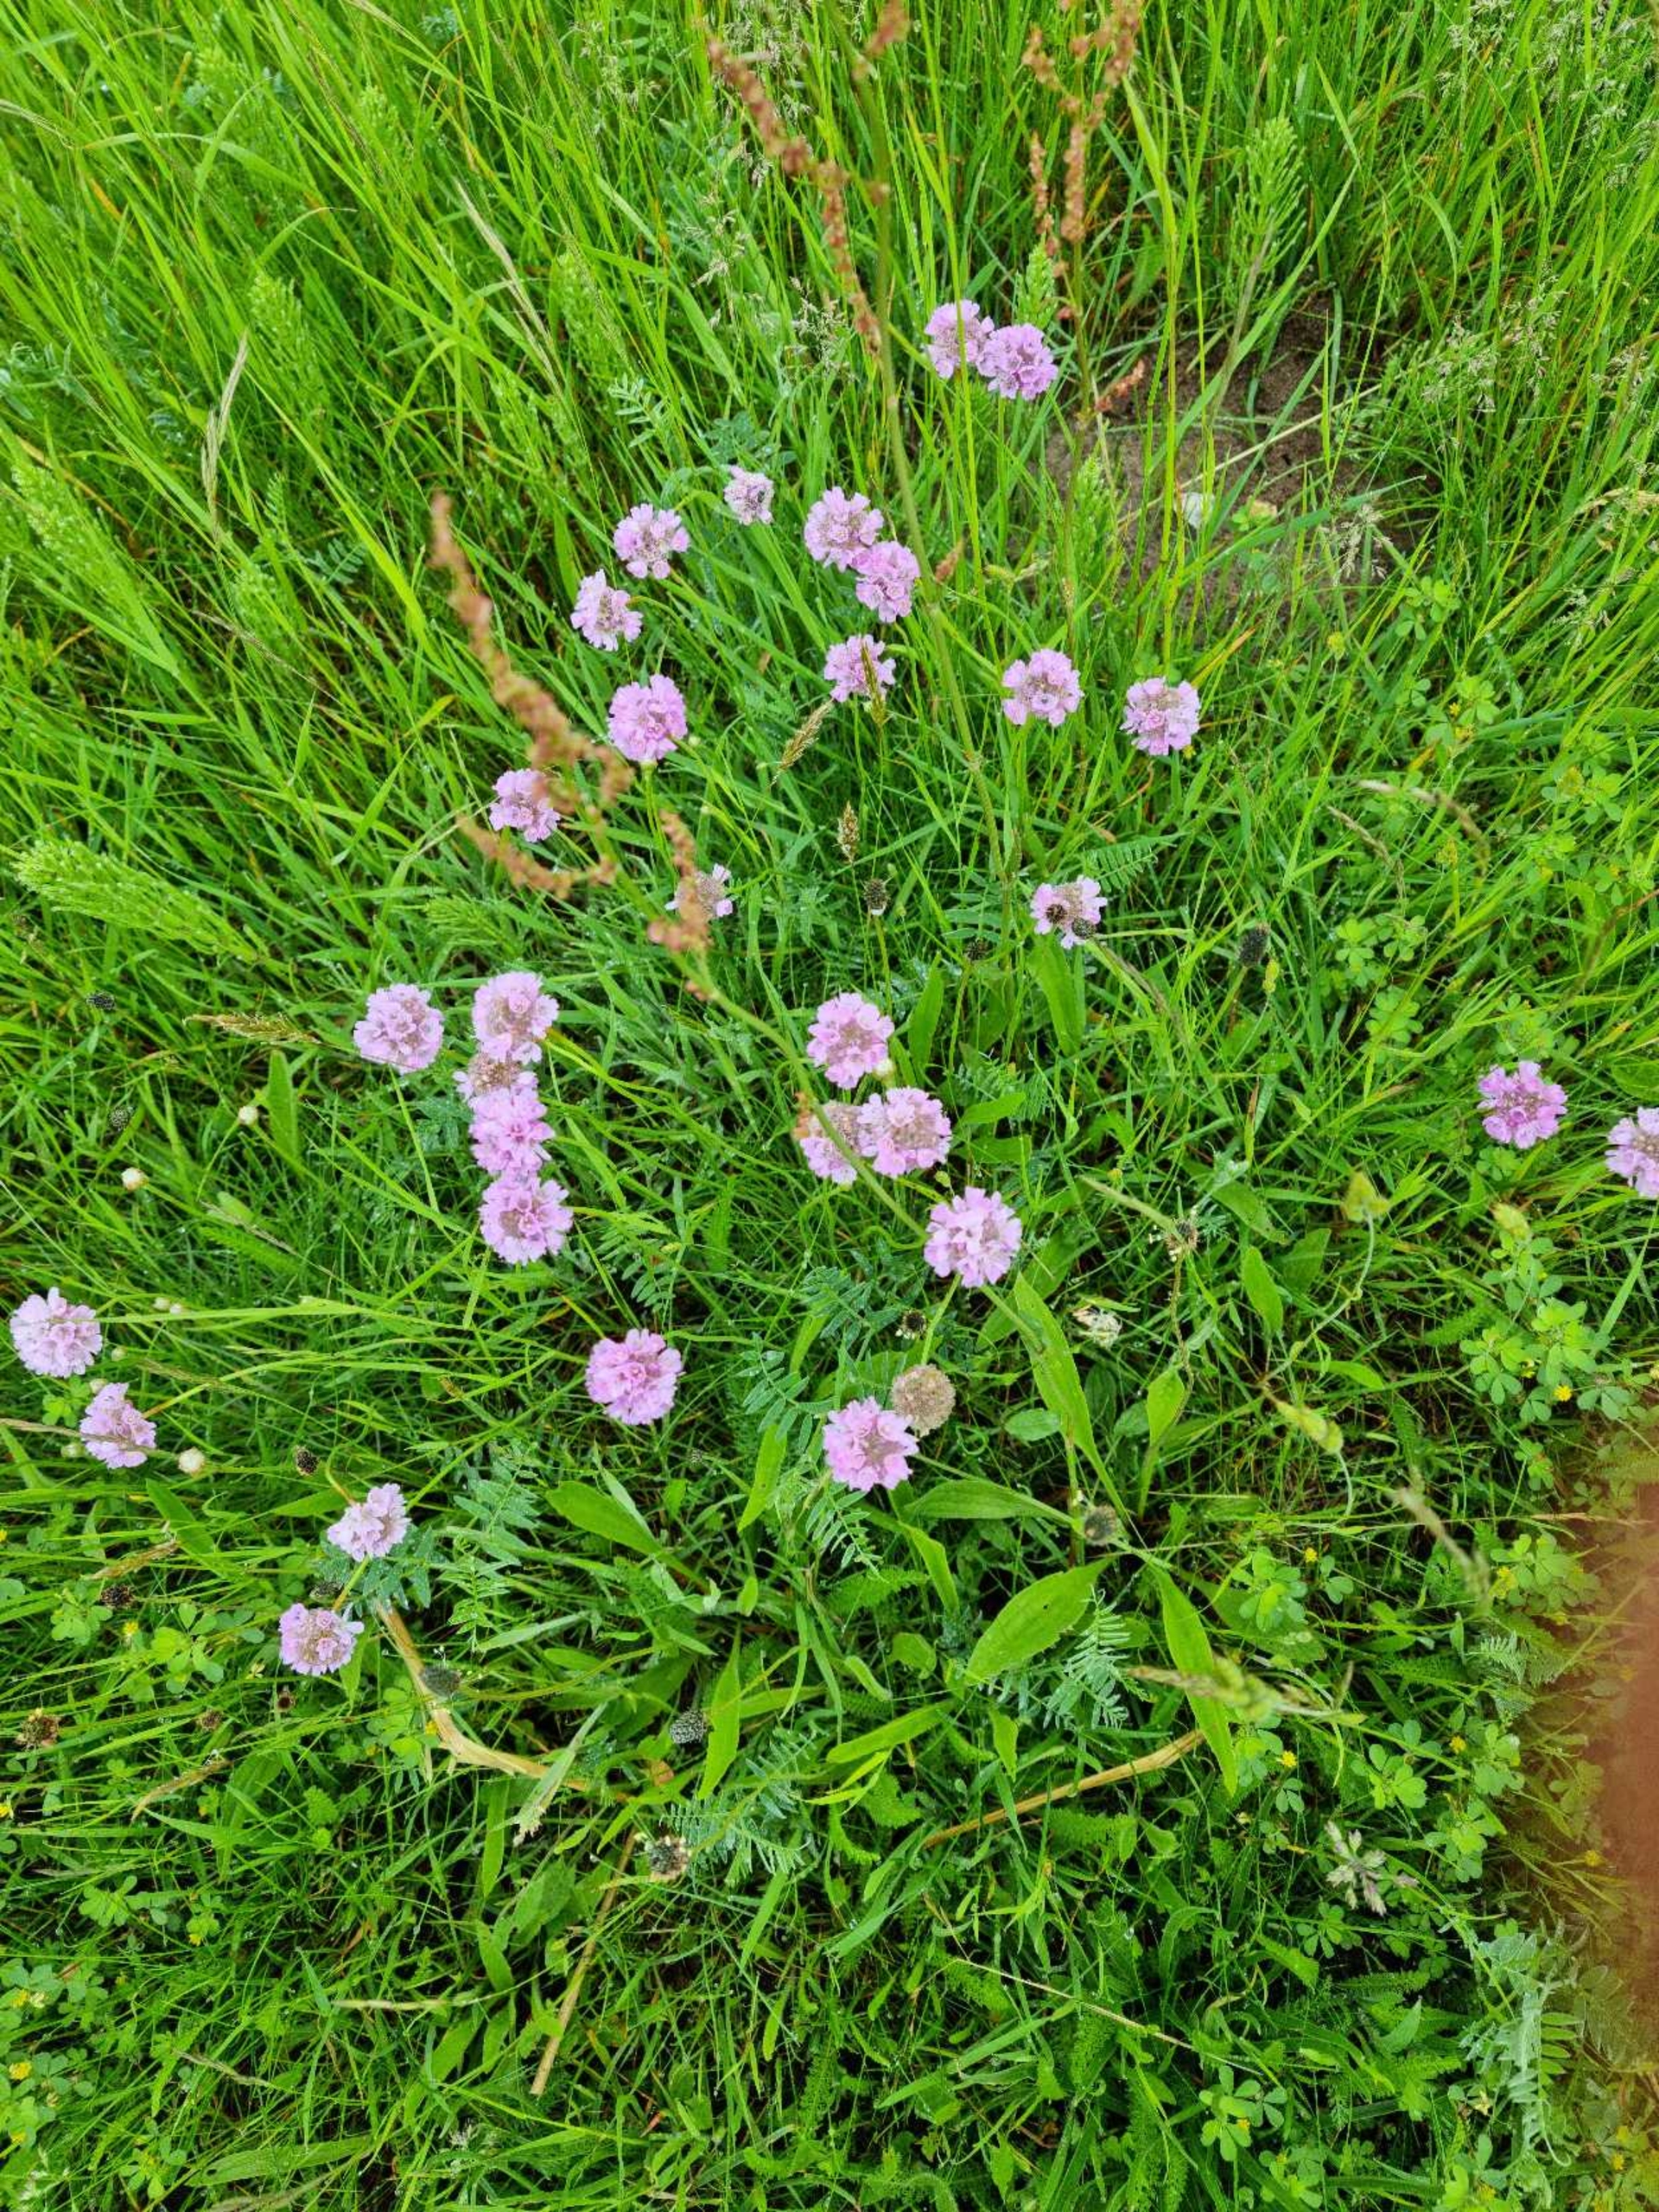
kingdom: Plantae
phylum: Tracheophyta
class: Magnoliopsida
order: Caryophyllales
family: Plumbaginaceae
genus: Armeria
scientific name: Armeria maritima
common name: Engelskgræs
